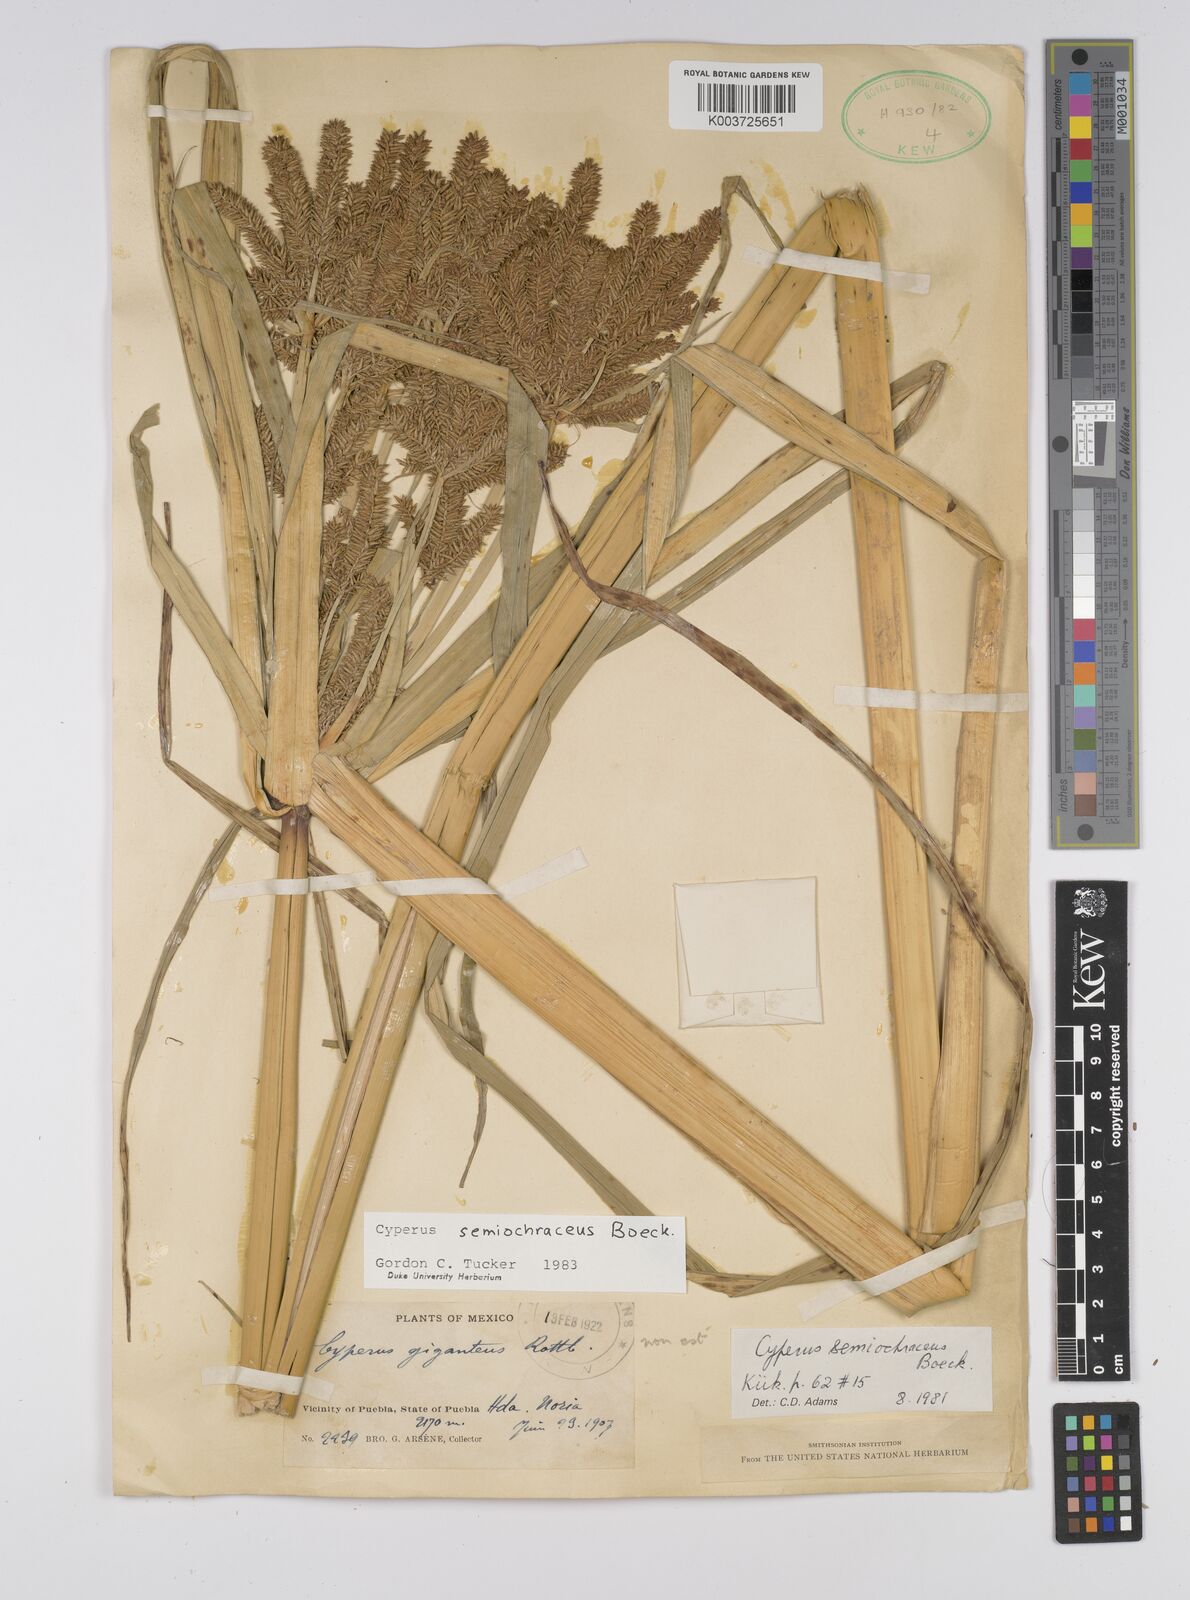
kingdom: Plantae
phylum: Tracheophyta
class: Liliopsida
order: Poales
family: Cyperaceae
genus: Cyperus
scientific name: Cyperus semiochraceus
